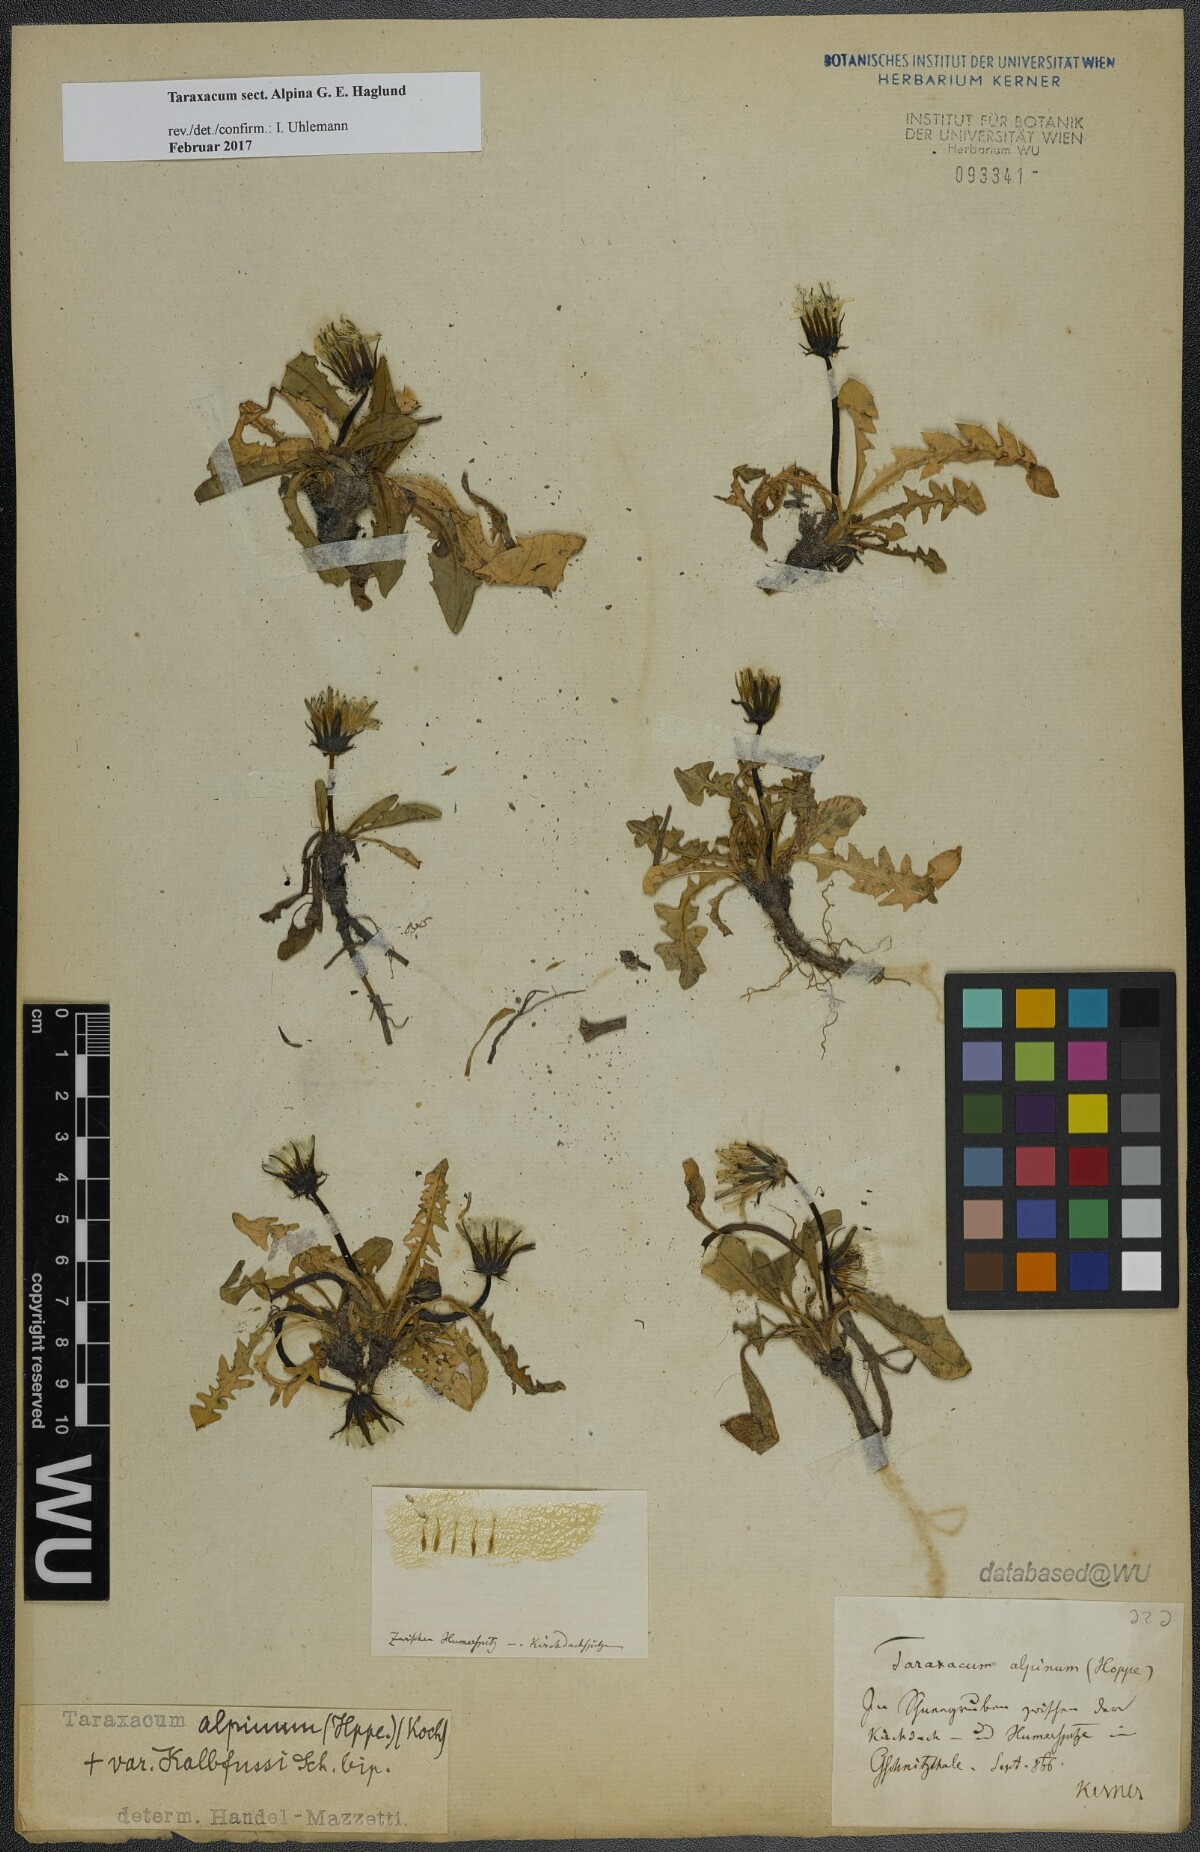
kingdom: Plantae
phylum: Tracheophyta
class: Magnoliopsida
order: Asterales
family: Asteraceae
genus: Taraxacum
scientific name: Taraxacum
